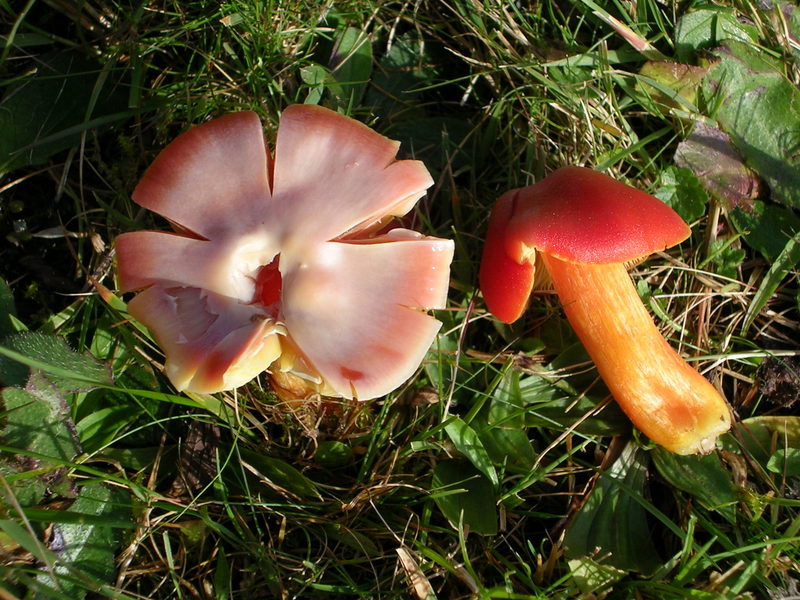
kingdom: Fungi
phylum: Basidiomycota
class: Agaricomycetes
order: Agaricales
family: Hygrophoraceae
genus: Hygrocybe
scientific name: Hygrocybe punicea
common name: skarlagen-vokshat
